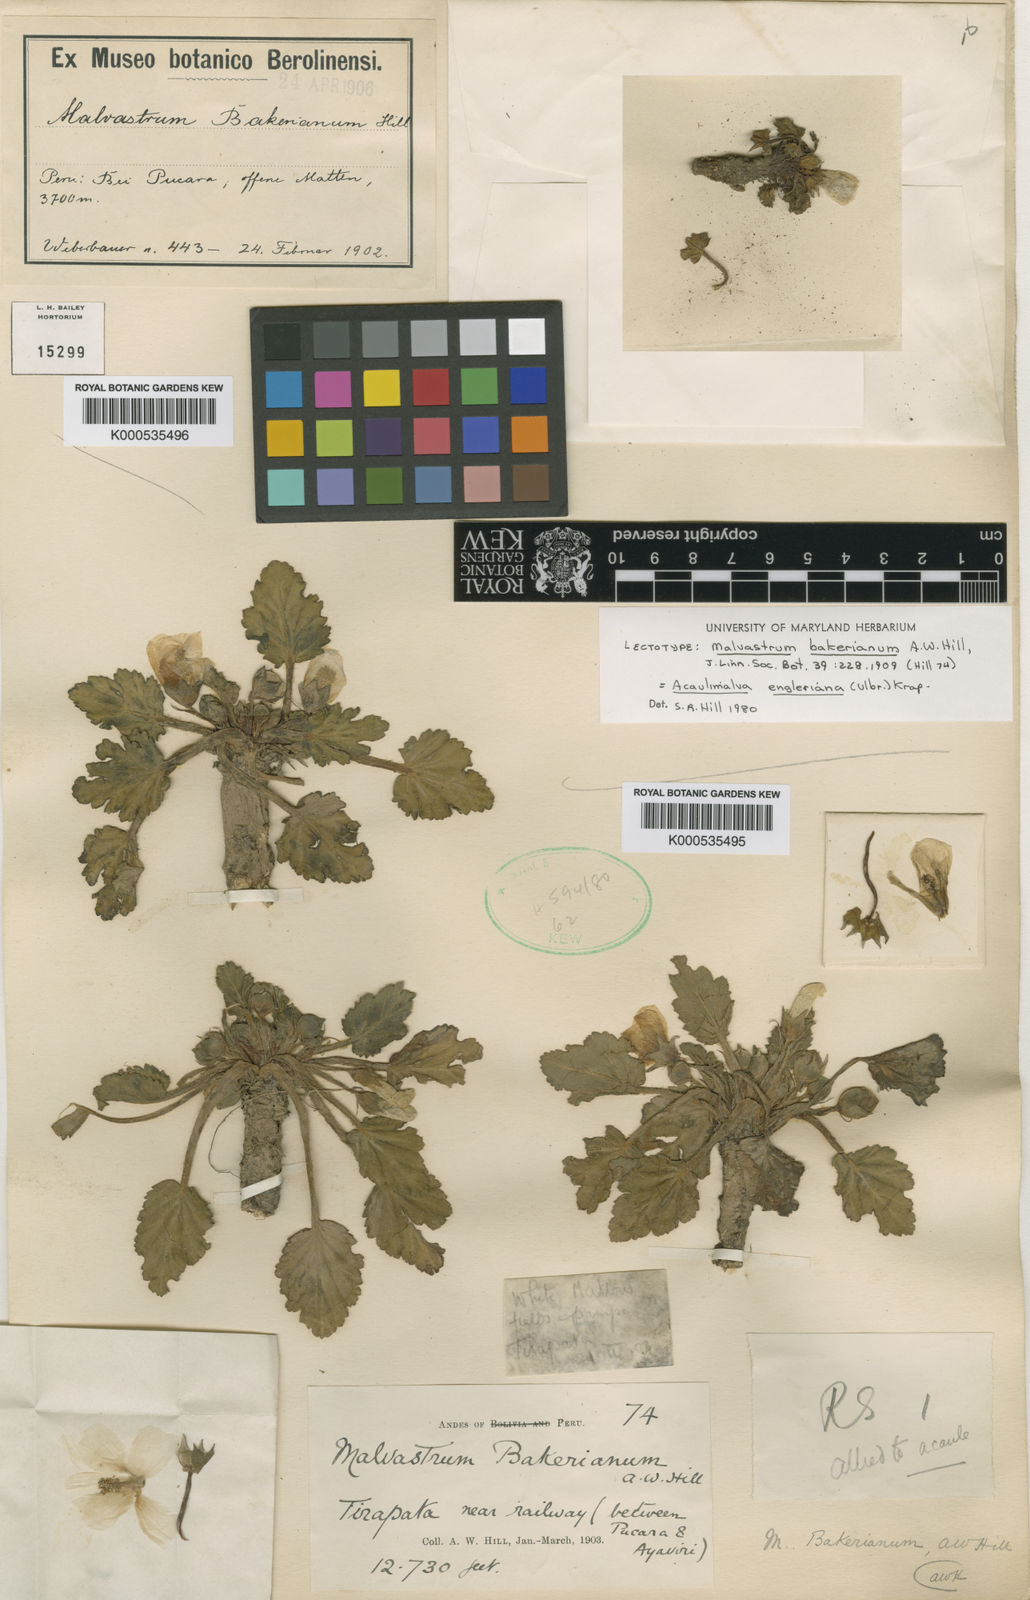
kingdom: Plantae
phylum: Tracheophyta
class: Magnoliopsida
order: Malvales
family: Malvaceae
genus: Acaulimalva
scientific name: Acaulimalva engleriana
